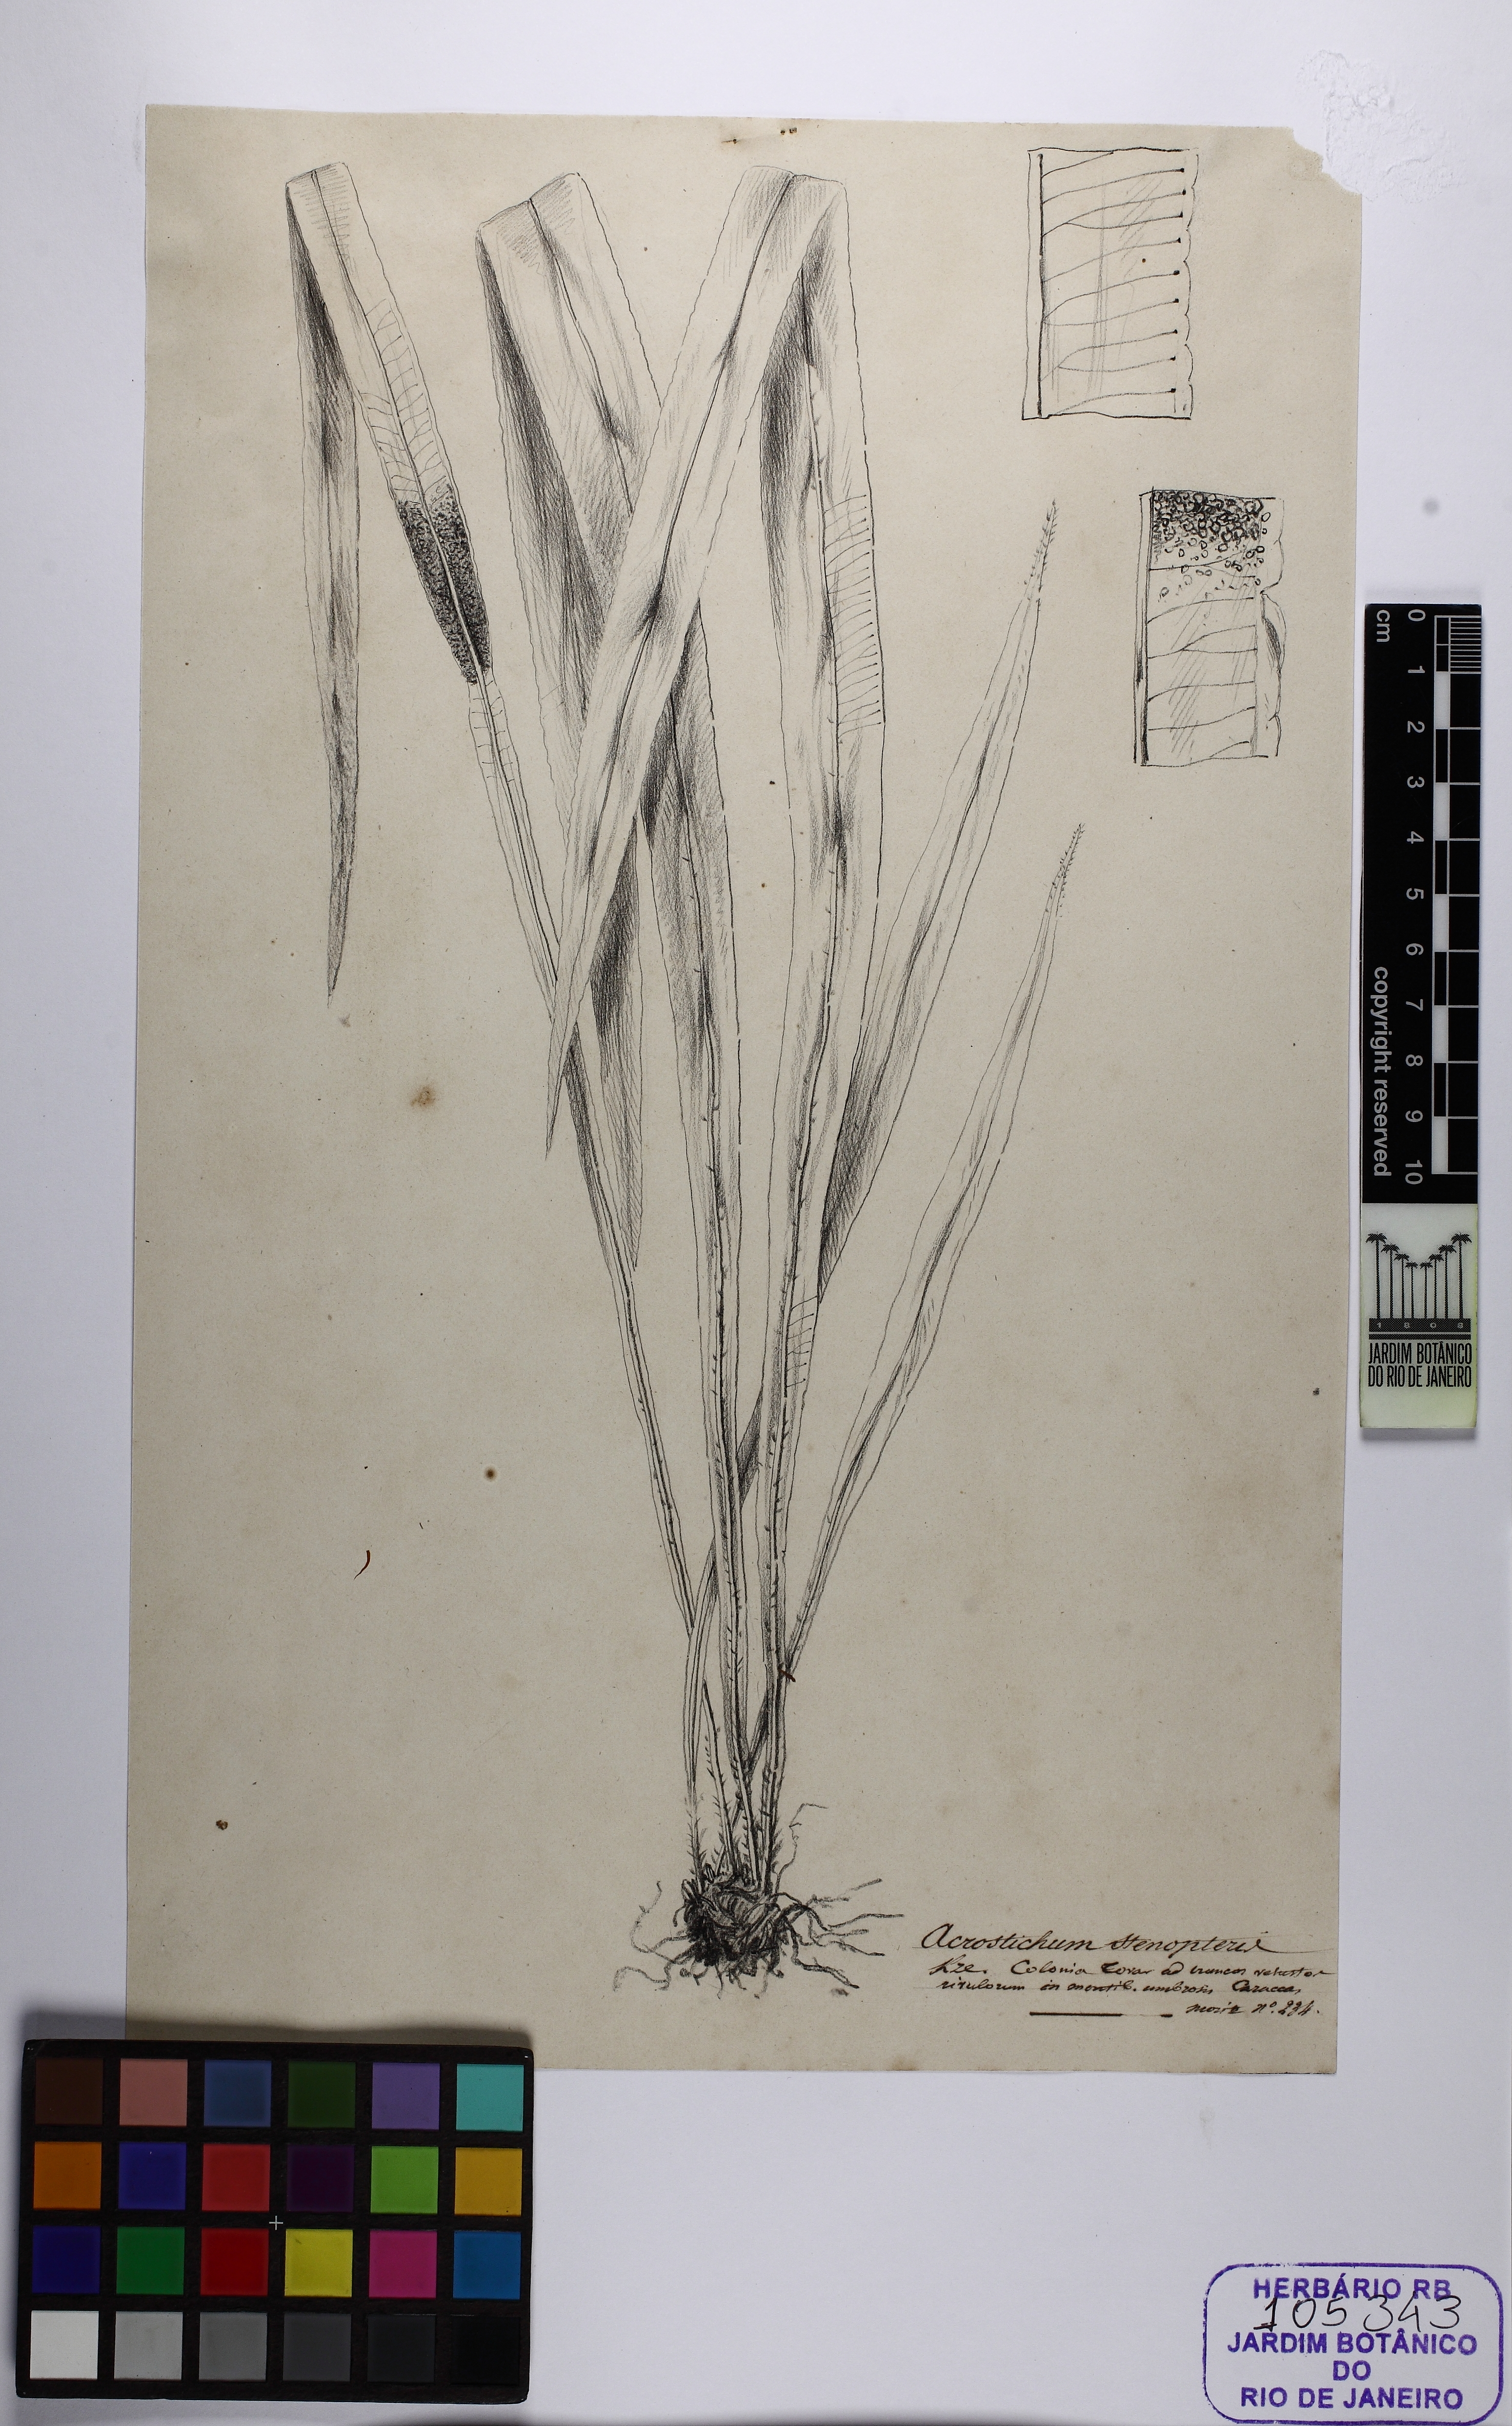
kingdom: Plantae
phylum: Tracheophyta
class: Polypodiopsida
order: Polypodiales
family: Dryopteridaceae
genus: Elaphoglossum
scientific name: Elaphoglossum brachyneuron
